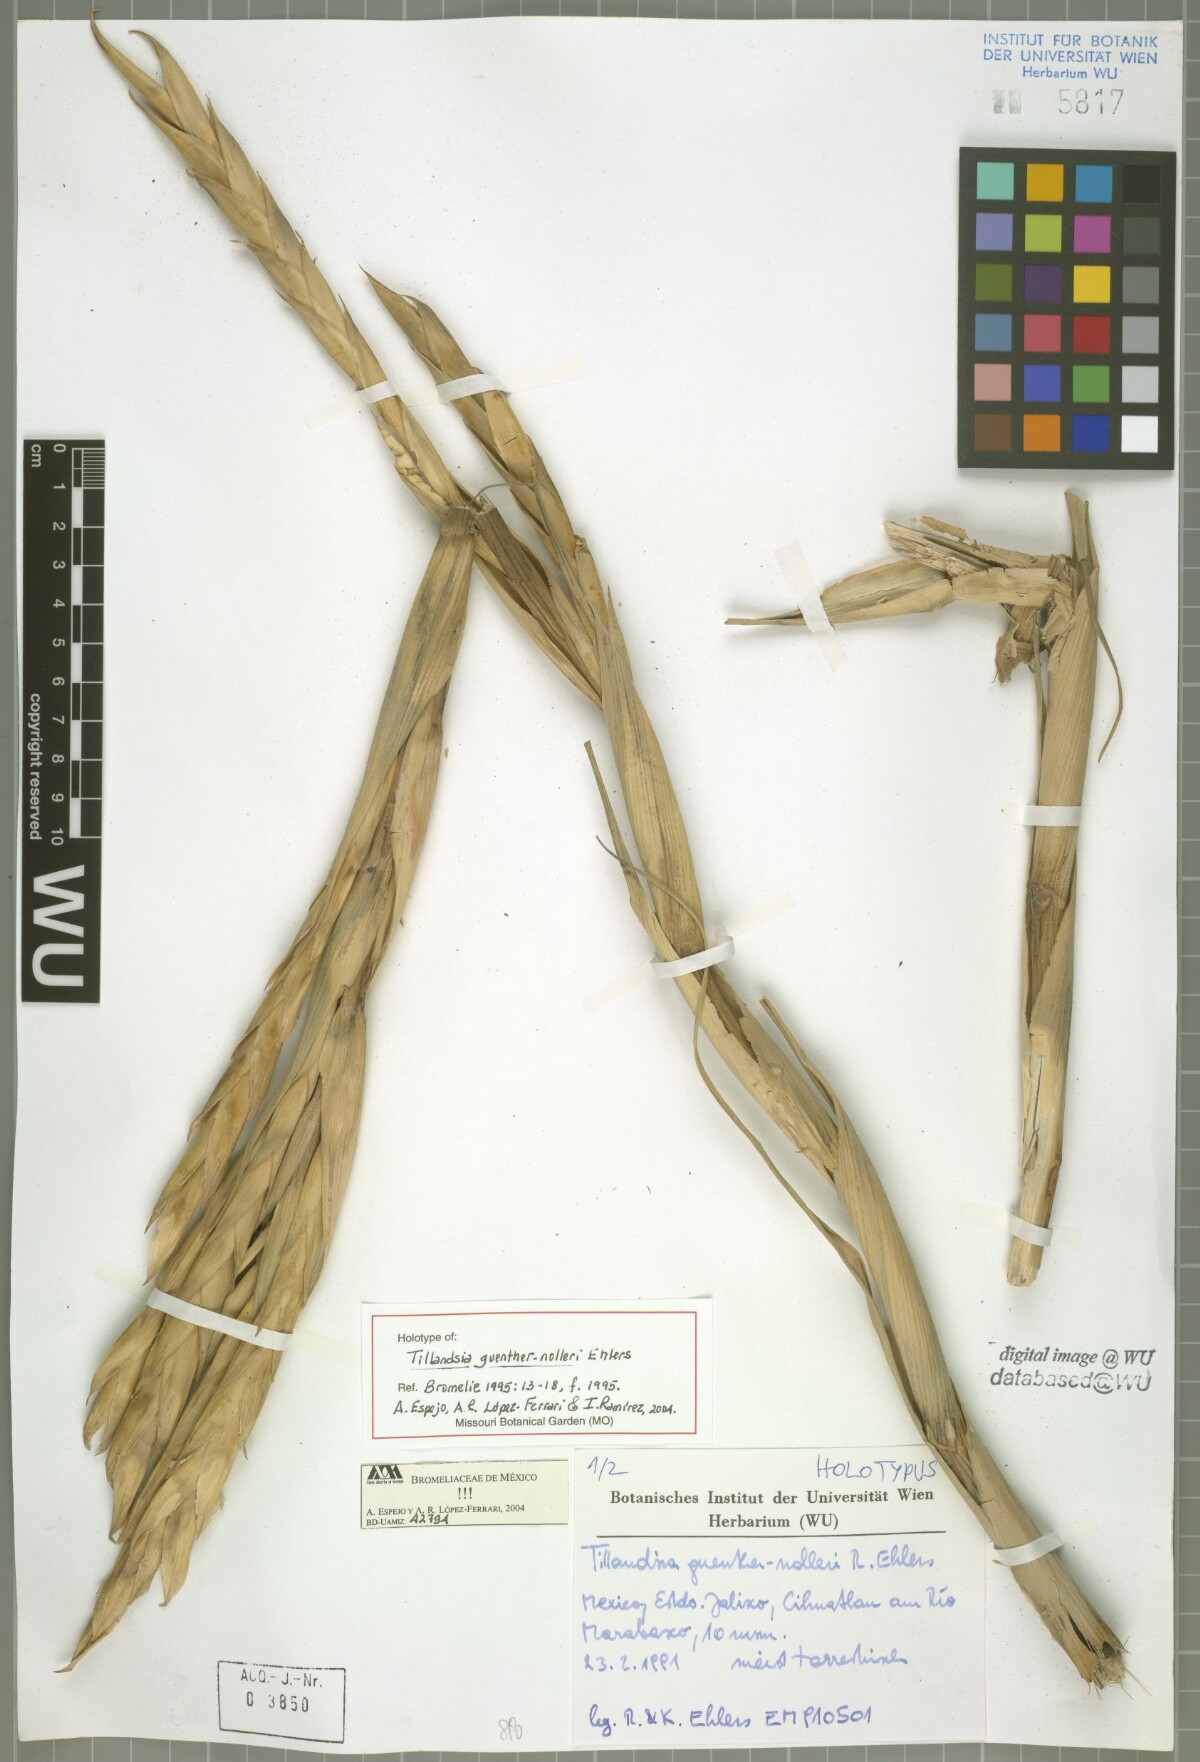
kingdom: Plantae
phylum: Tracheophyta
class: Liliopsida
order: Poales
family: Bromeliaceae
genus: Tillandsia
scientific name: Tillandsia guenther-nolleri
